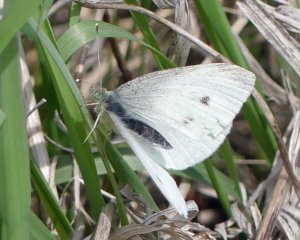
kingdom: Animalia
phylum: Arthropoda
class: Insecta
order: Lepidoptera
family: Pieridae
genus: Pieris
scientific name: Pieris rapae
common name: Cabbage White
